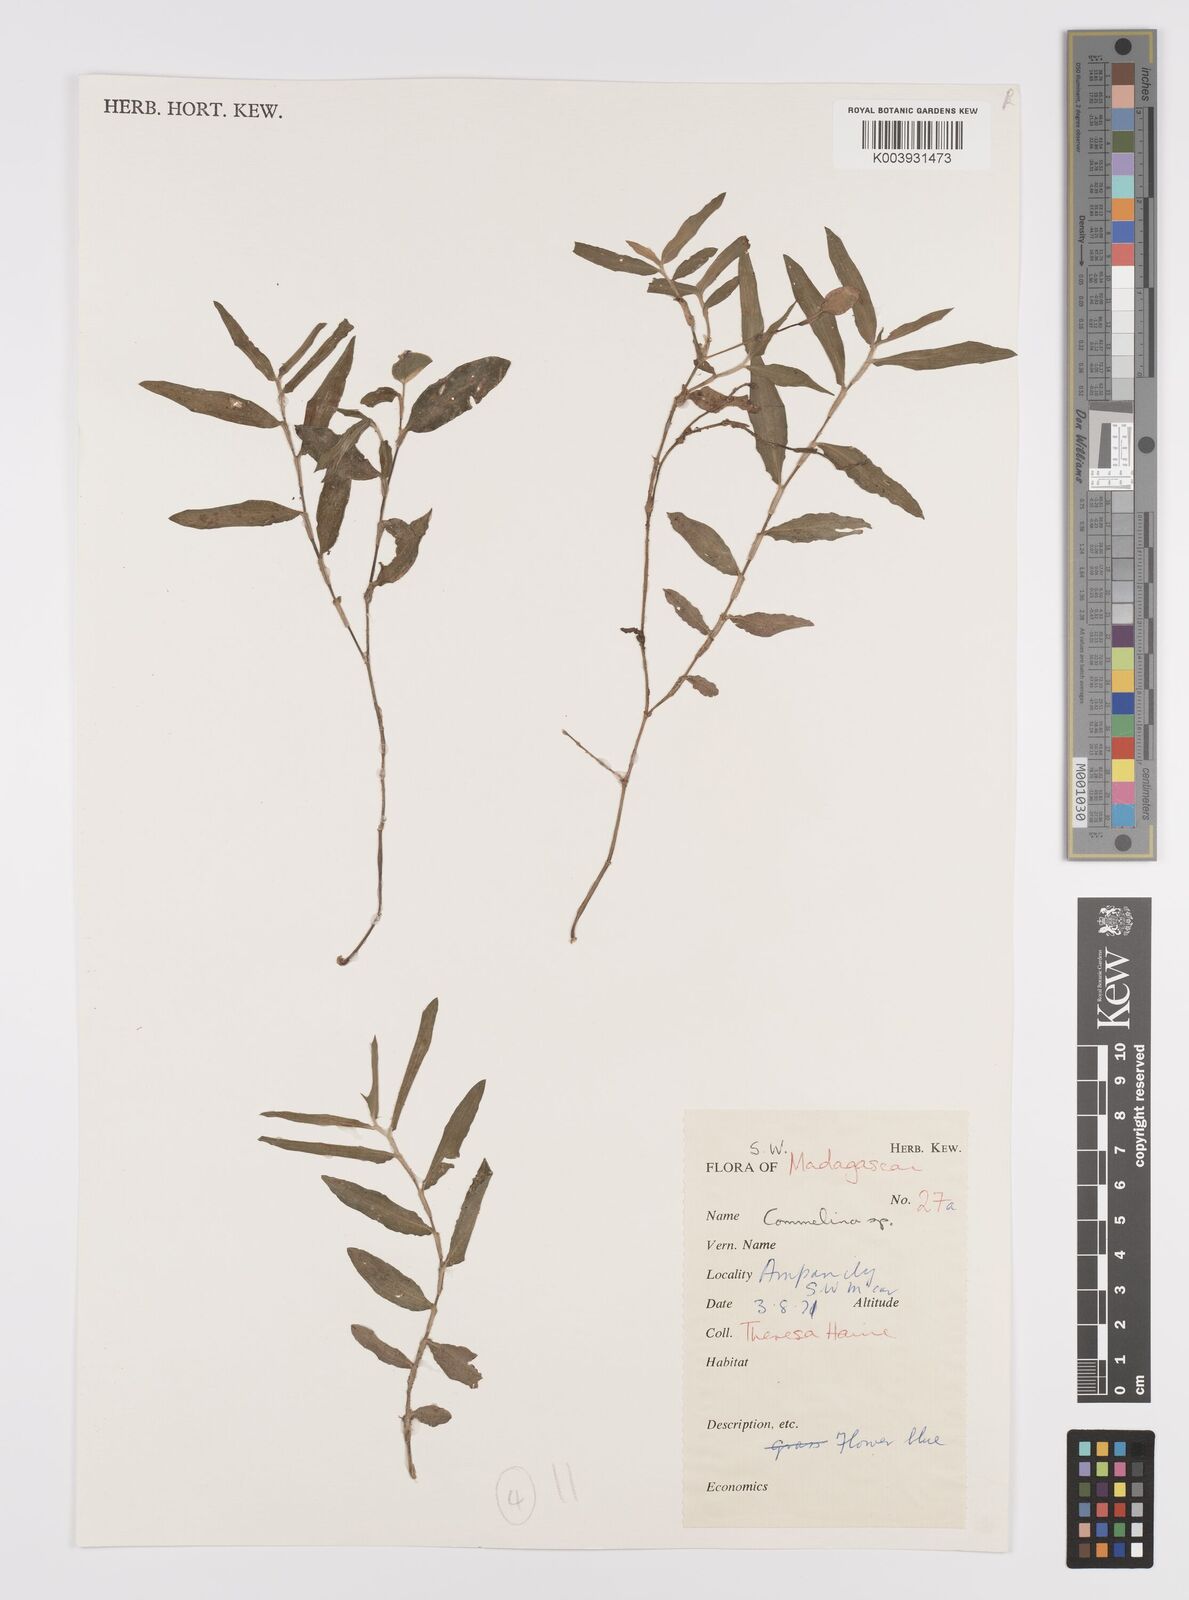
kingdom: Plantae
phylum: Tracheophyta
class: Liliopsida
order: Commelinales
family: Commelinaceae
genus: Commelina
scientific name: Commelina
